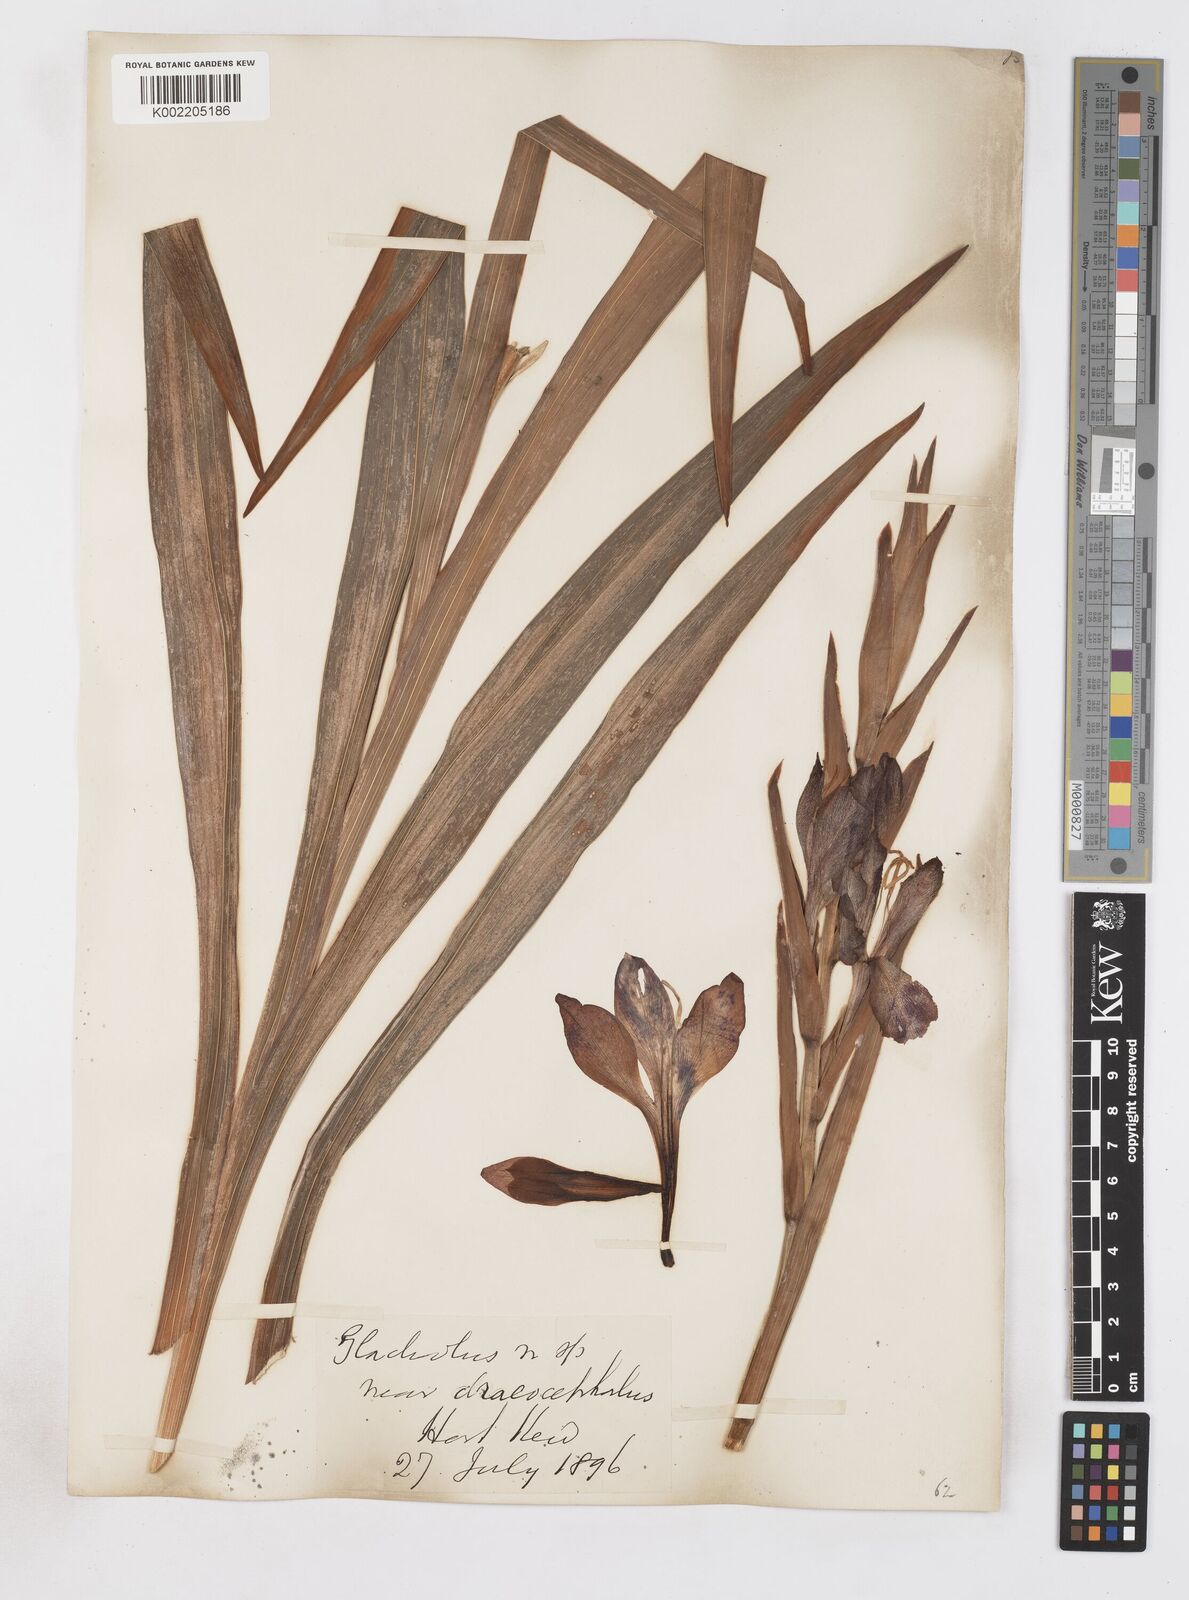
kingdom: Plantae
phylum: Tracheophyta
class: Liliopsida
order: Asparagales
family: Iridaceae
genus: Gladiolus
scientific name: Gladiolus dalenii
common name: Cornflag
